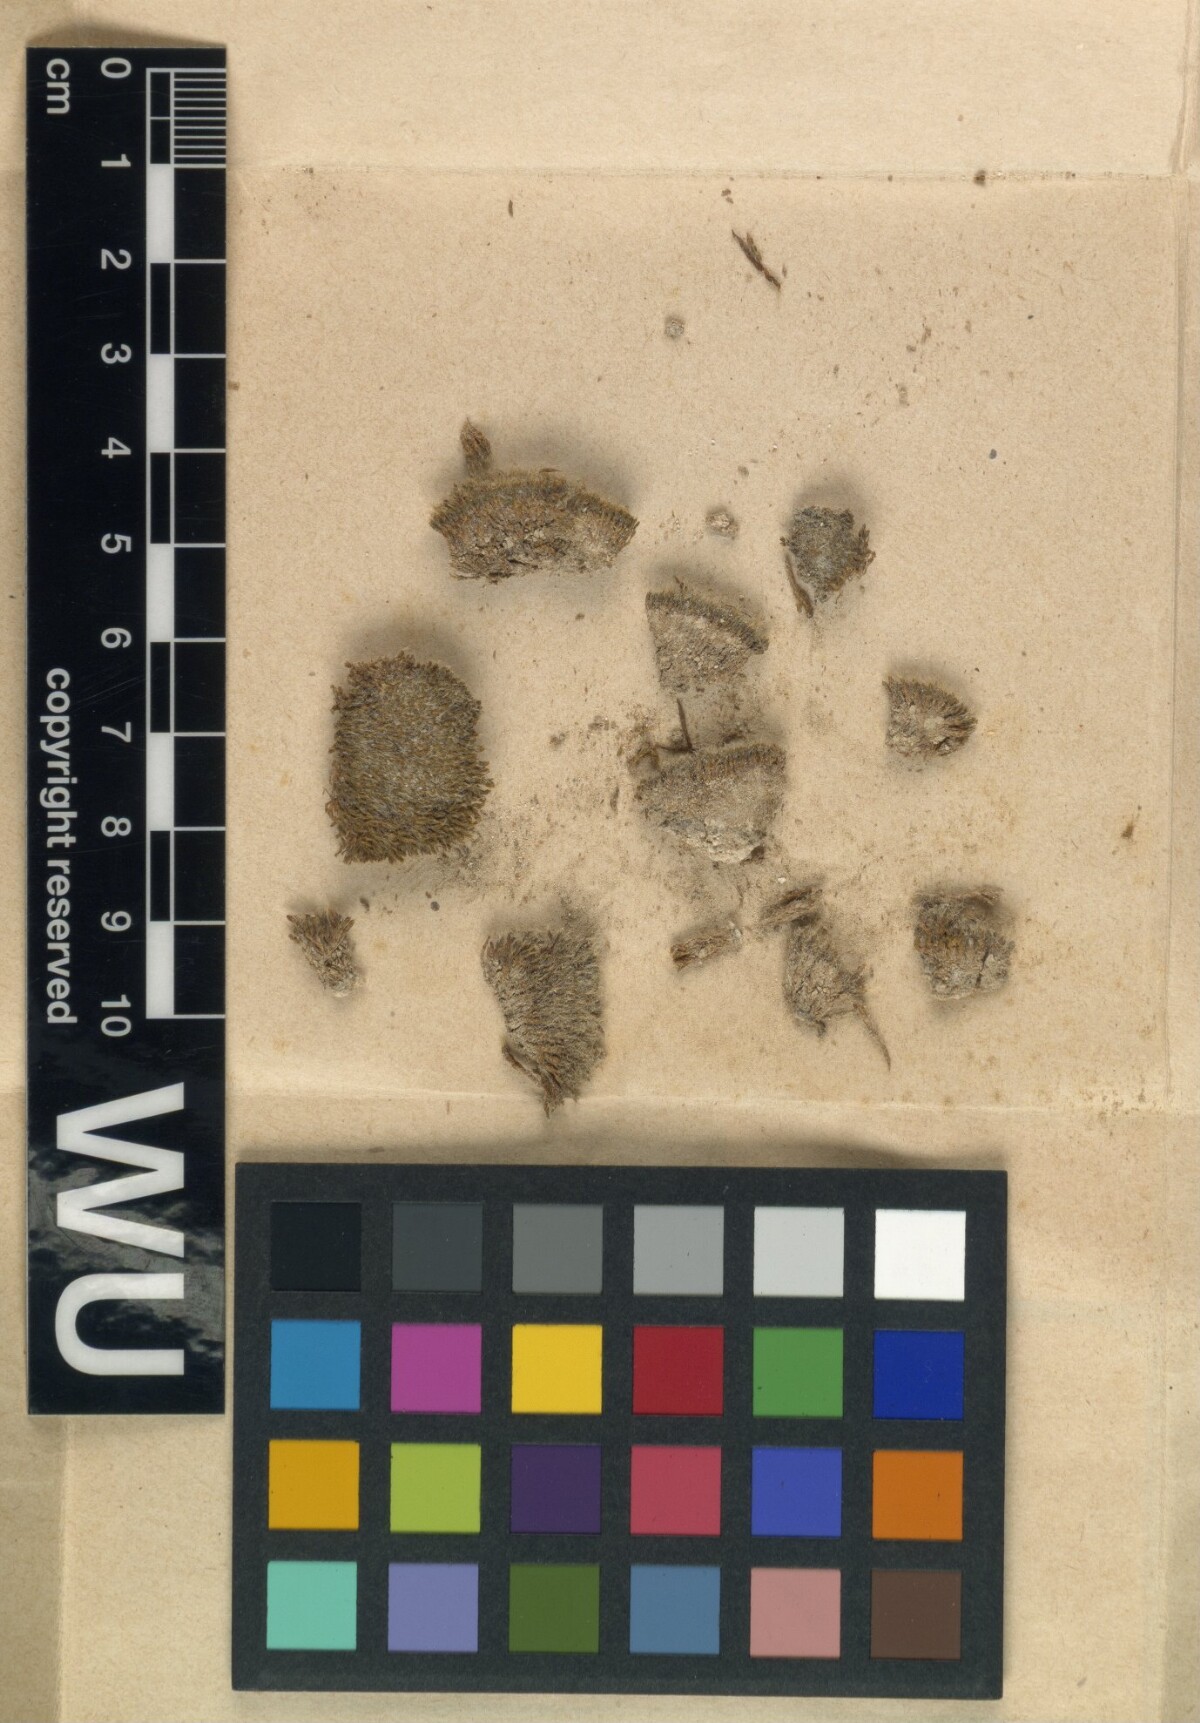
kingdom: Plantae
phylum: Bryophyta
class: Bryopsida
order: Grimmiales
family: Grimmiaceae
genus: Grimmia
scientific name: Grimmia capillata
